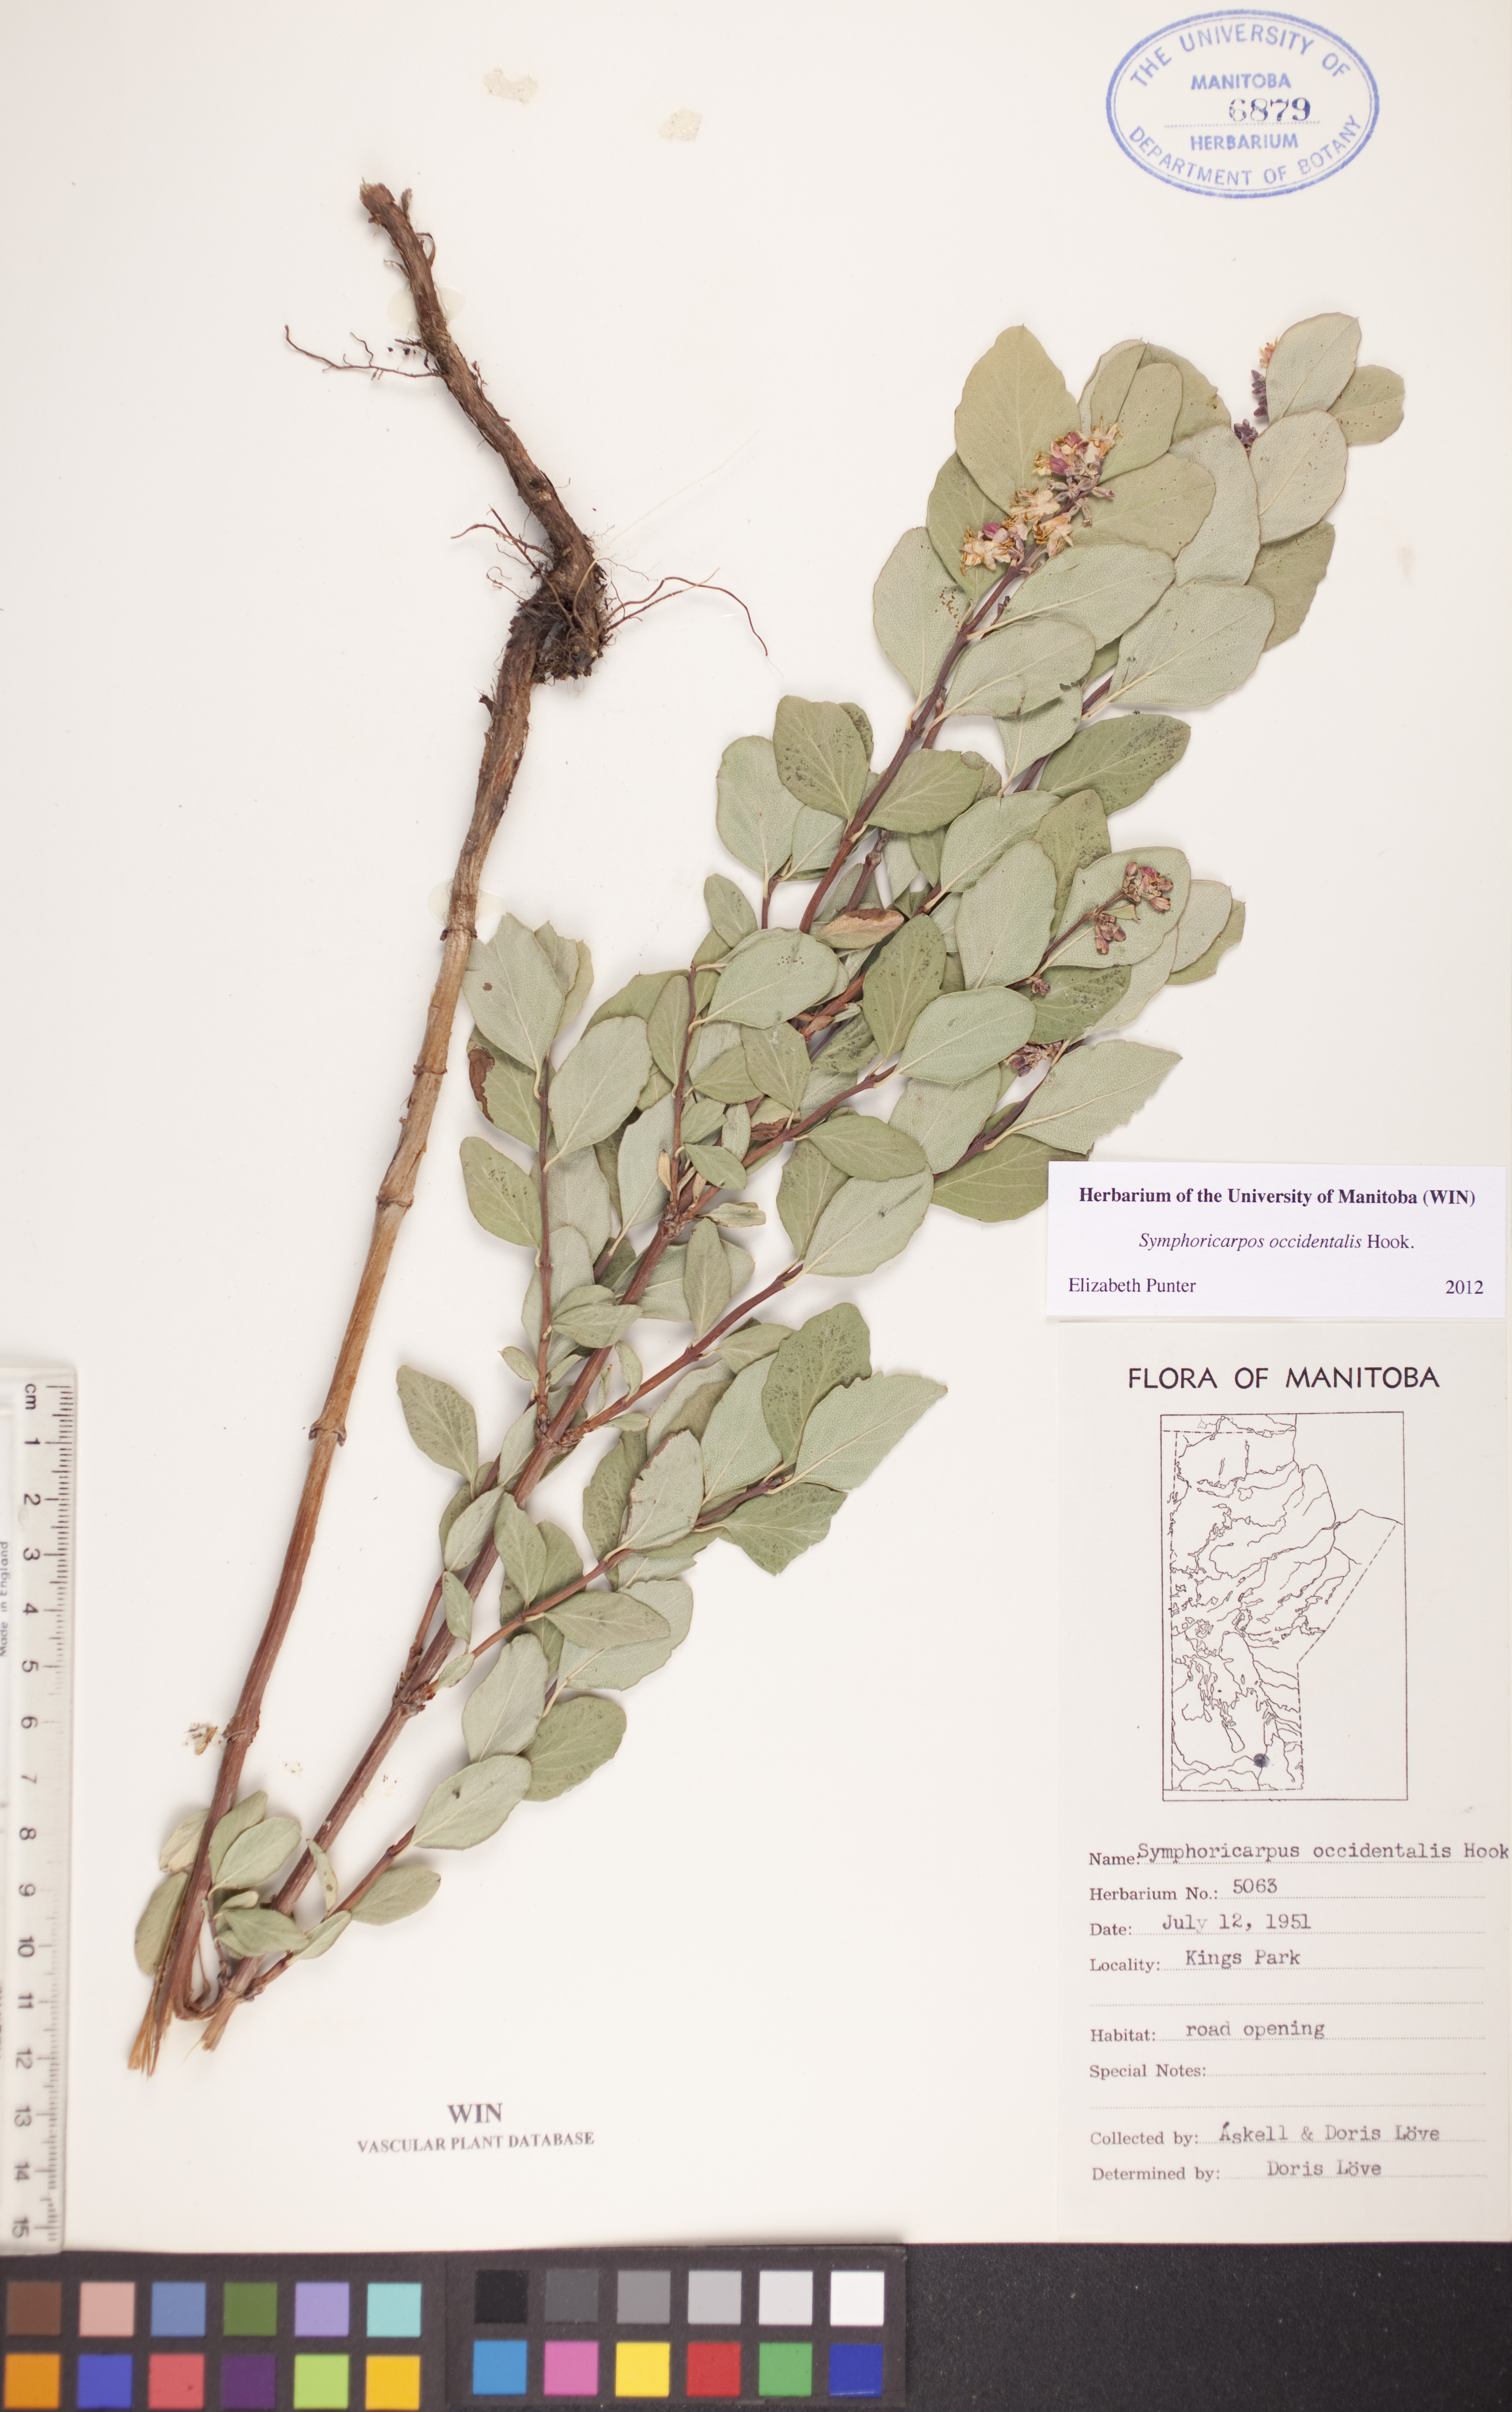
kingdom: Plantae
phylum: Tracheophyta
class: Magnoliopsida
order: Dipsacales
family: Caprifoliaceae
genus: Symphoricarpos
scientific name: Symphoricarpos occidentalis
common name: Wolfberry
